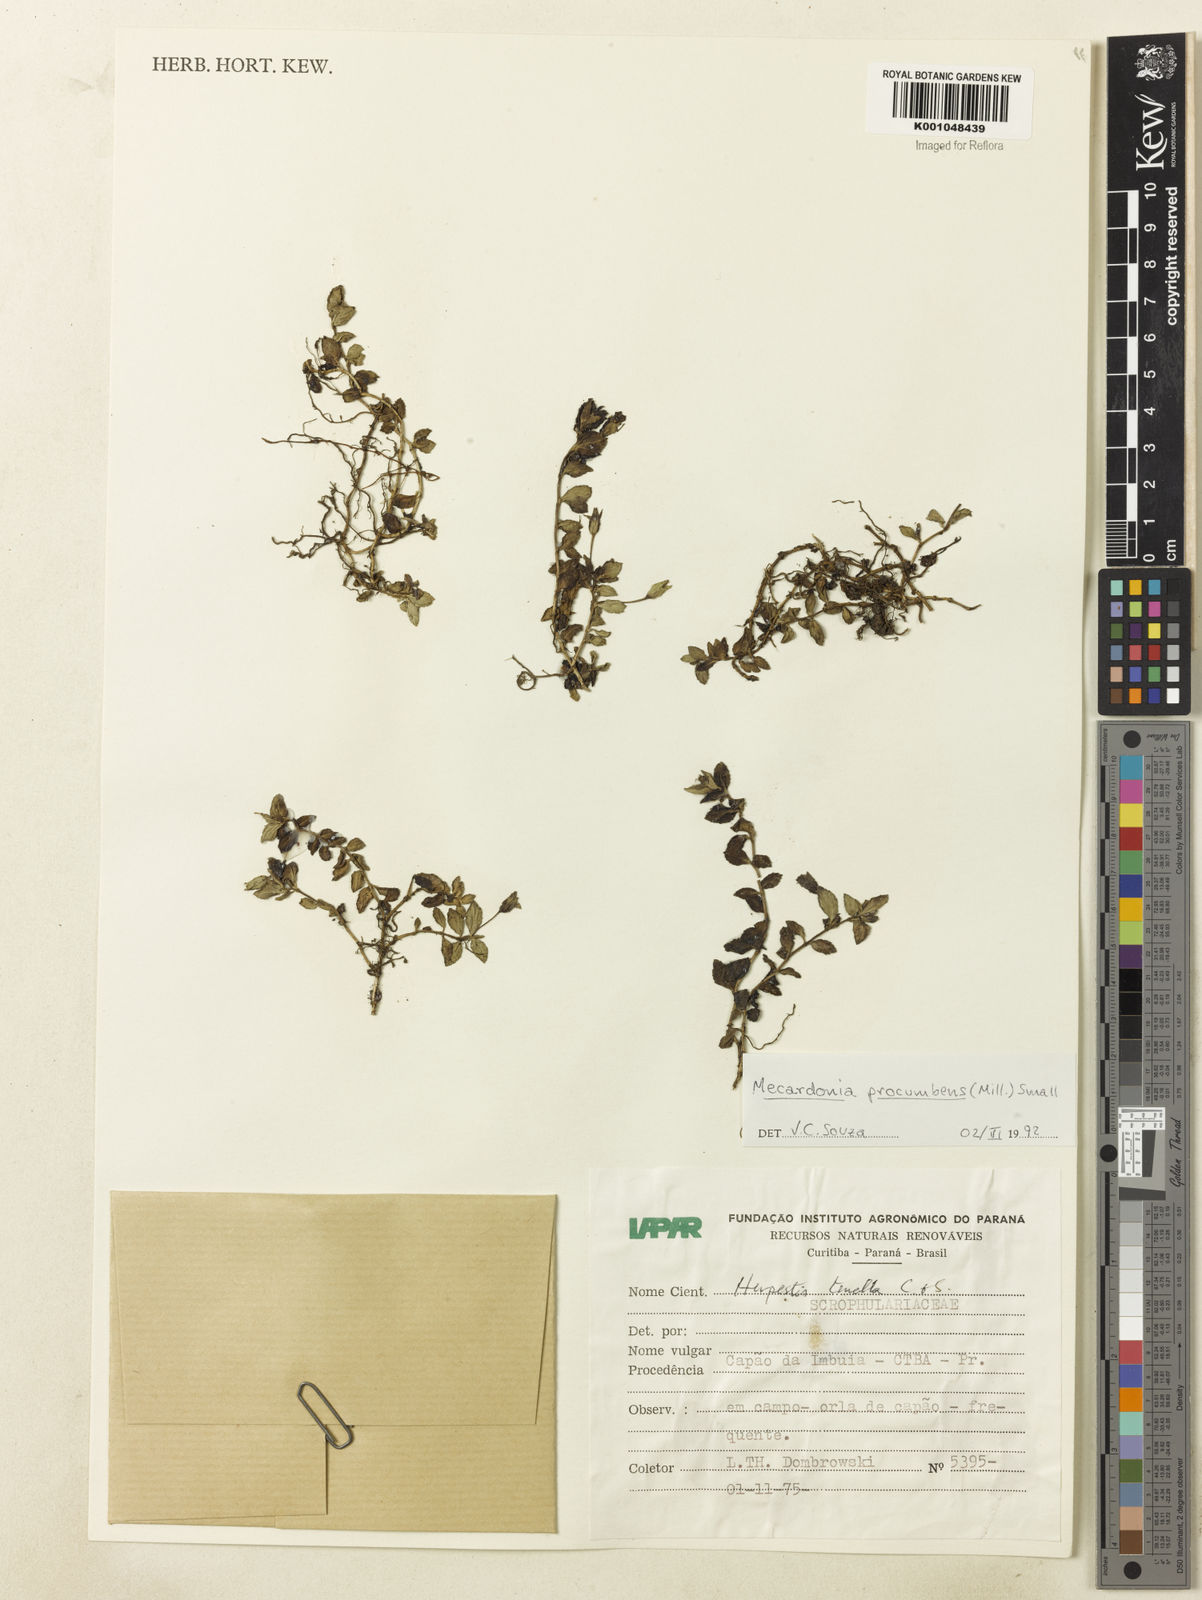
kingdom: Plantae
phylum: Tracheophyta
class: Magnoliopsida
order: Lamiales
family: Plantaginaceae
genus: Mecardonia
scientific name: Mecardonia procumbens
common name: Baby jump-up
